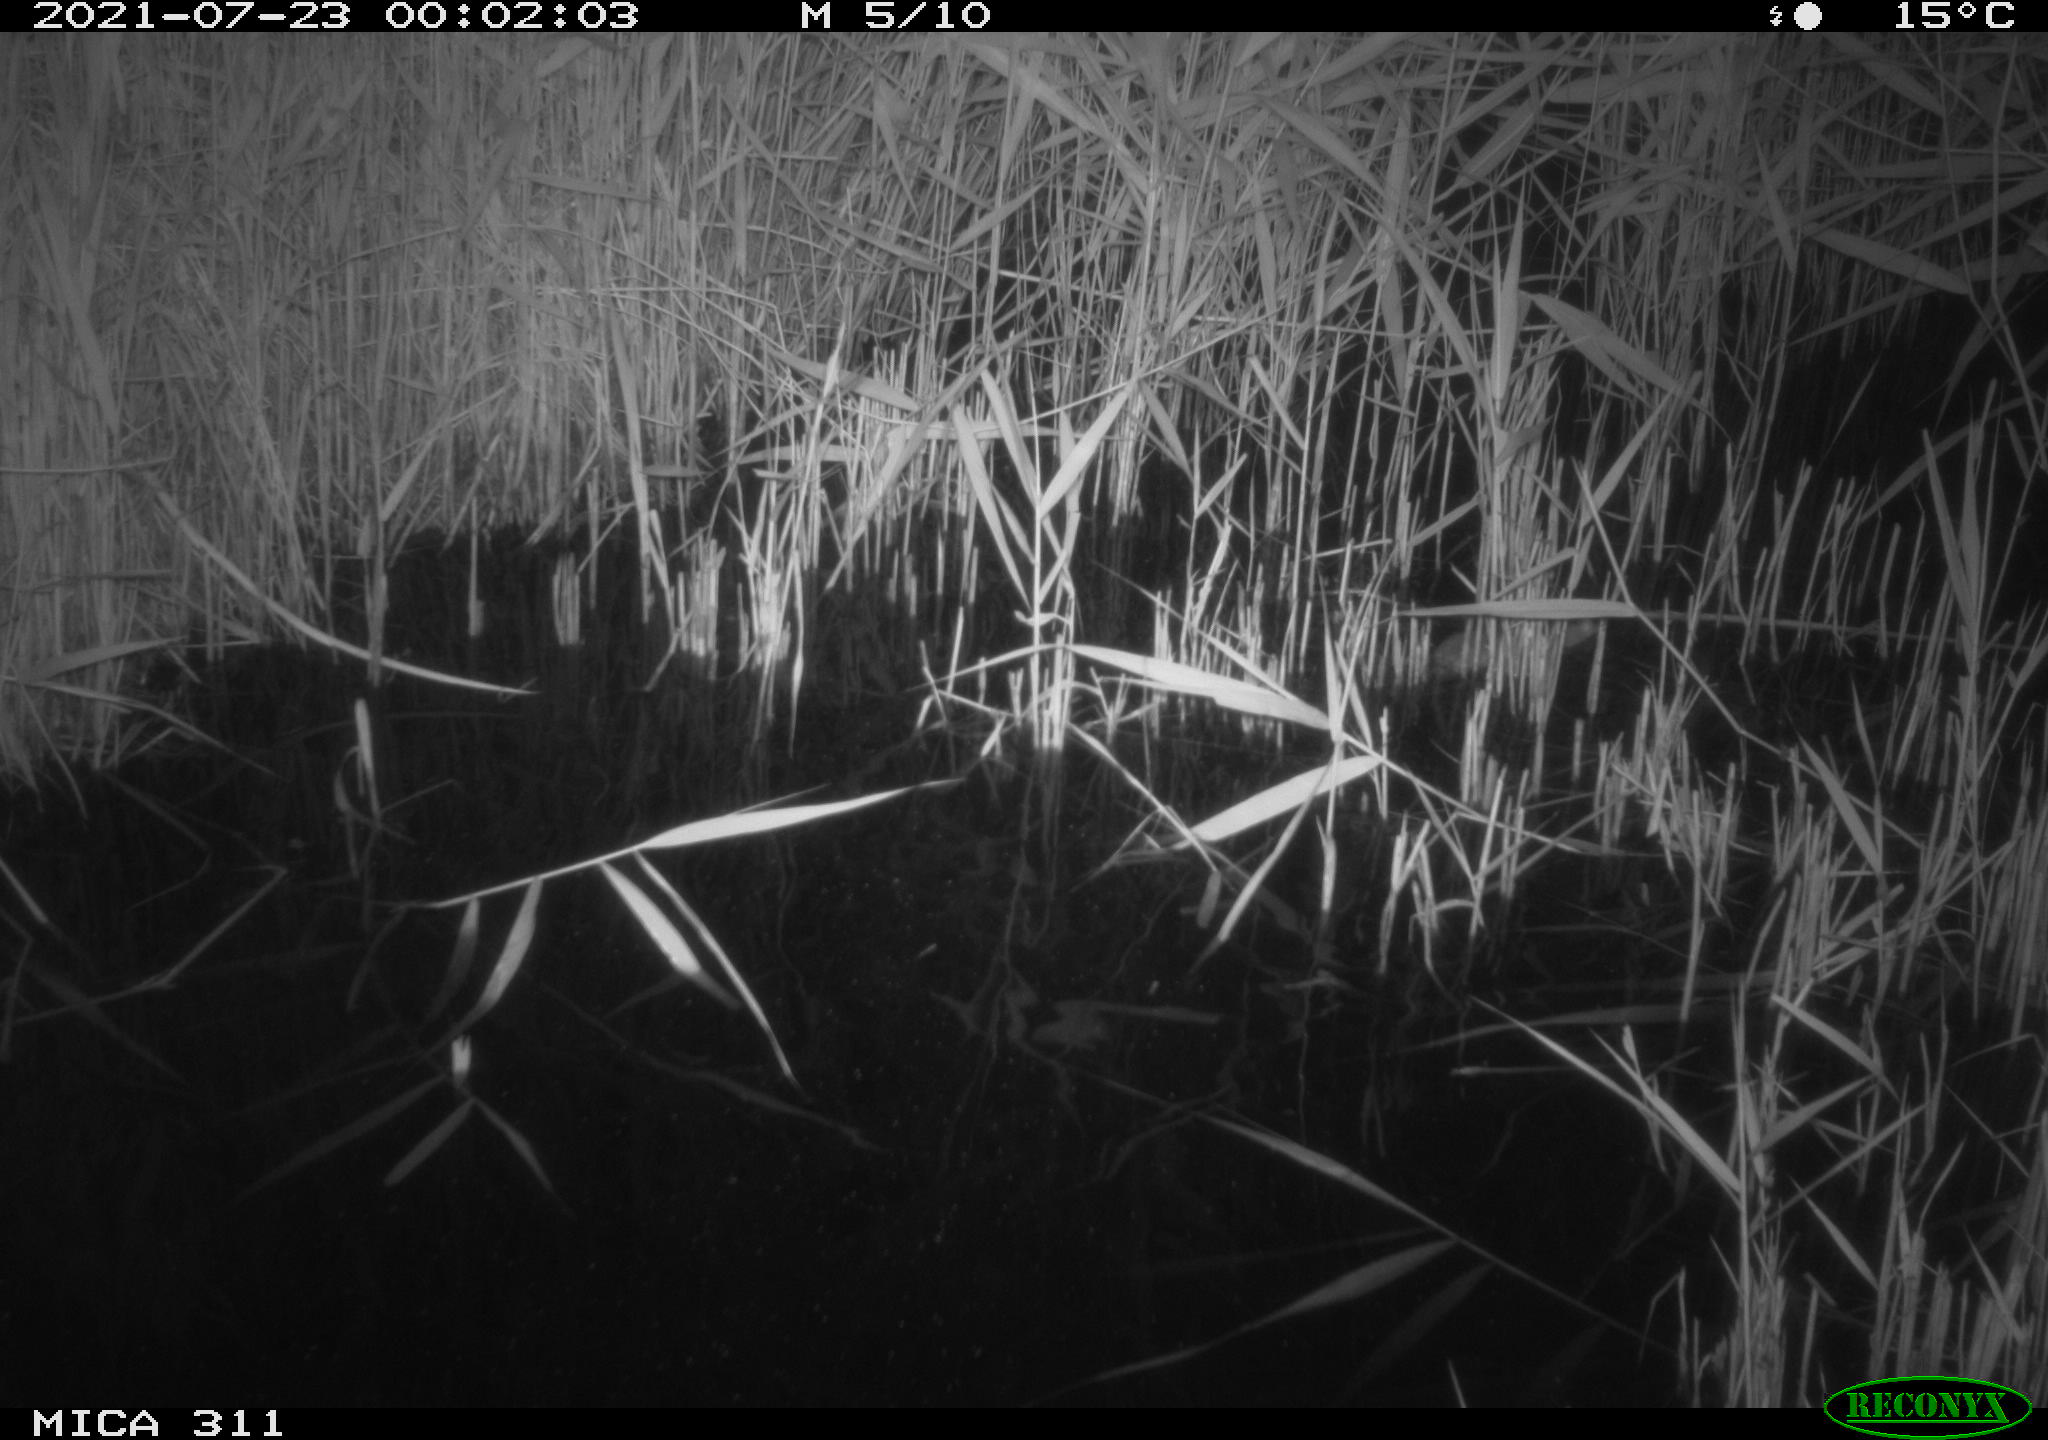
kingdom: Animalia
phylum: Chordata
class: Mammalia
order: Rodentia
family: Muridae
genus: Rattus
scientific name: Rattus norvegicus
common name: Brown rat
